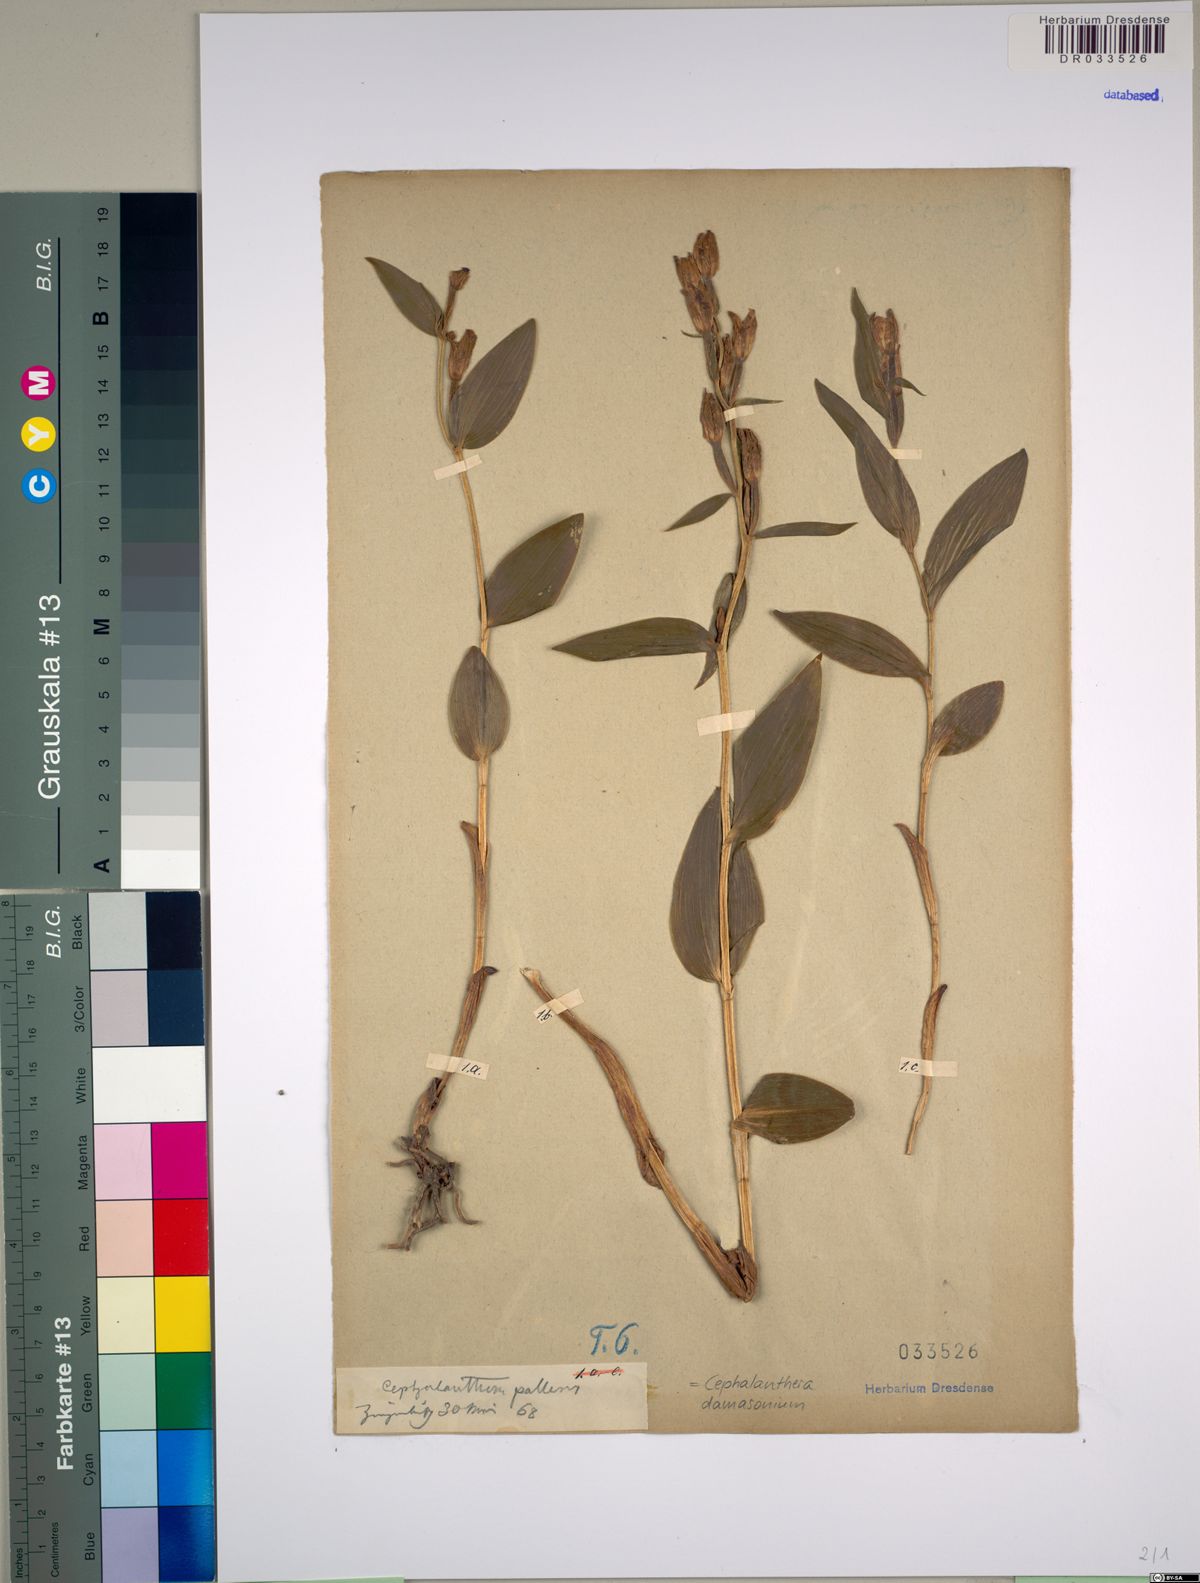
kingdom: Plantae
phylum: Tracheophyta
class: Liliopsida
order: Asparagales
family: Orchidaceae
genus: Cephalanthera
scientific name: Cephalanthera damasonium
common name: White helleborine
